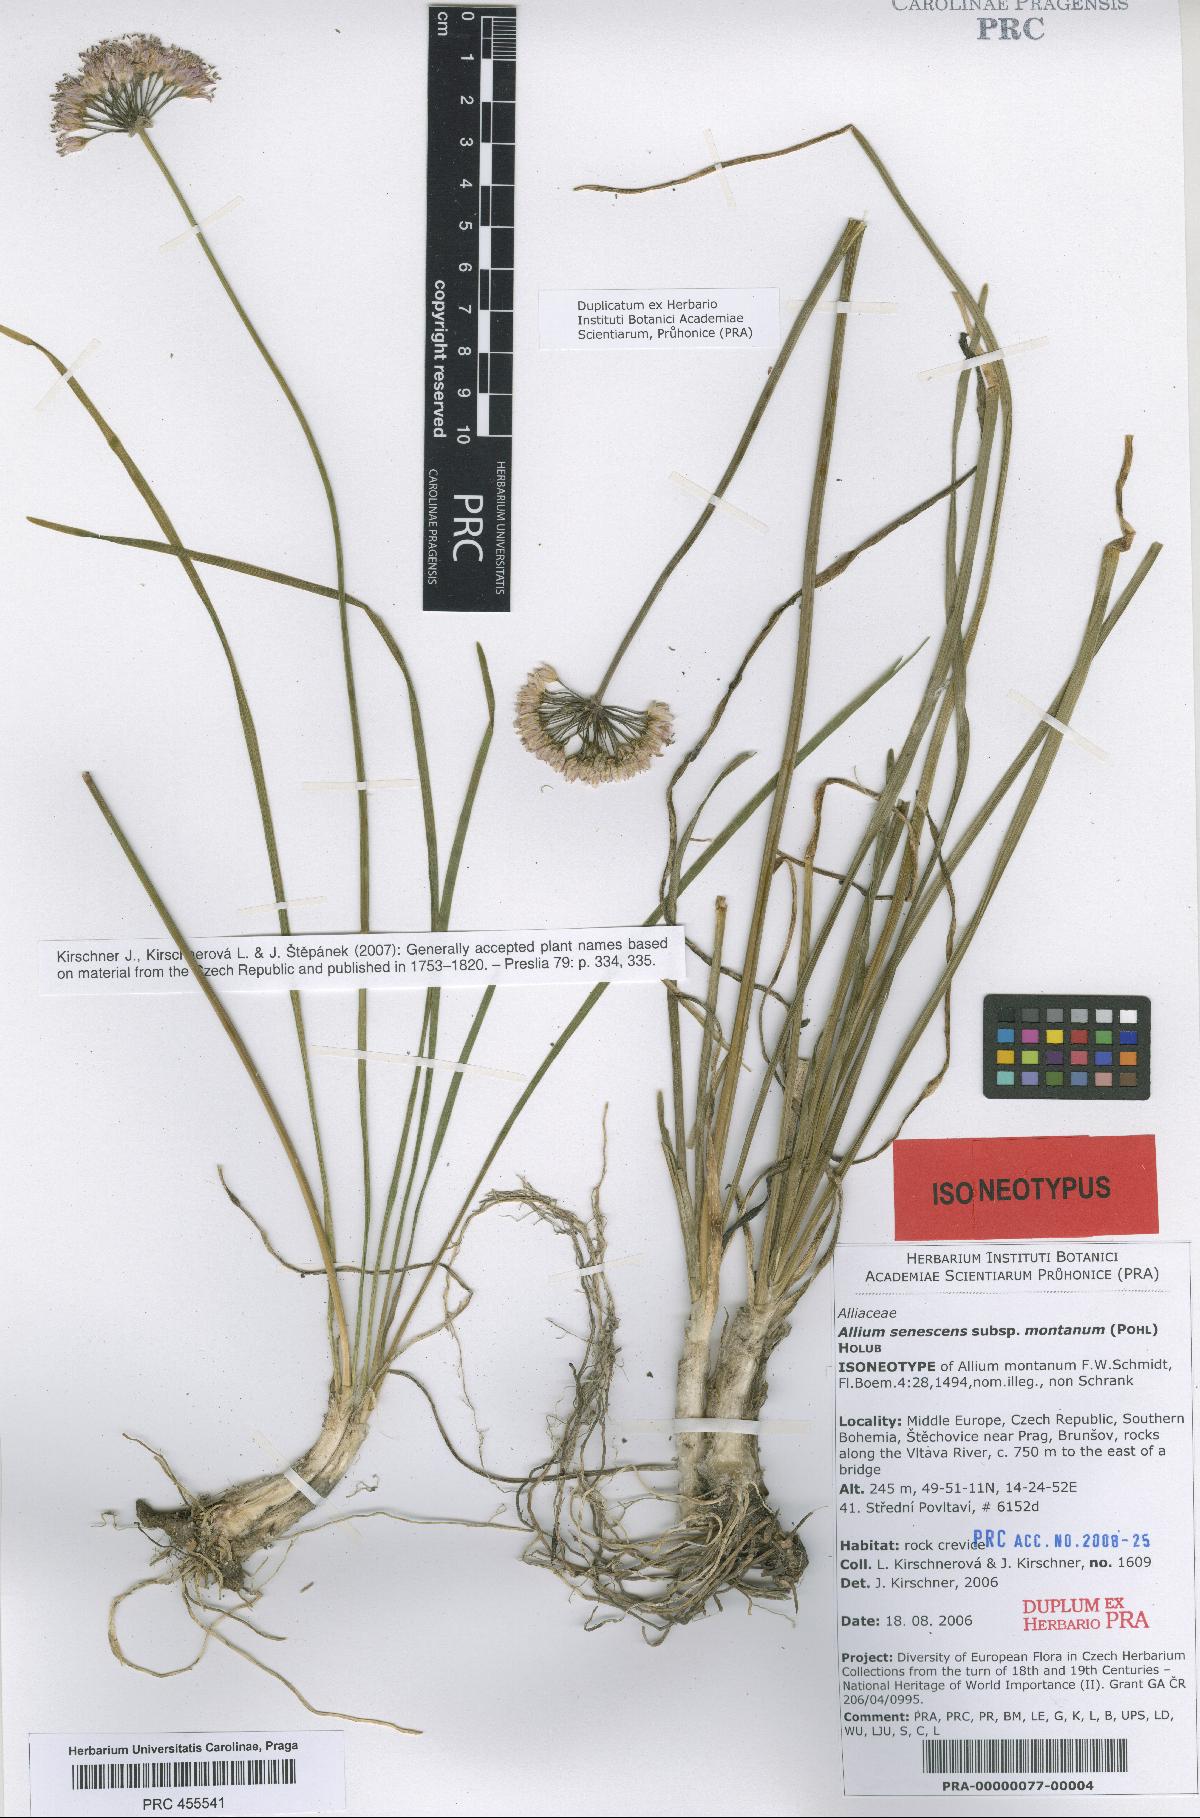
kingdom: Plantae
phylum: Tracheophyta
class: Liliopsida
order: Asparagales
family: Amaryllidaceae
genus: Allium
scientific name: Allium lusitanicum
